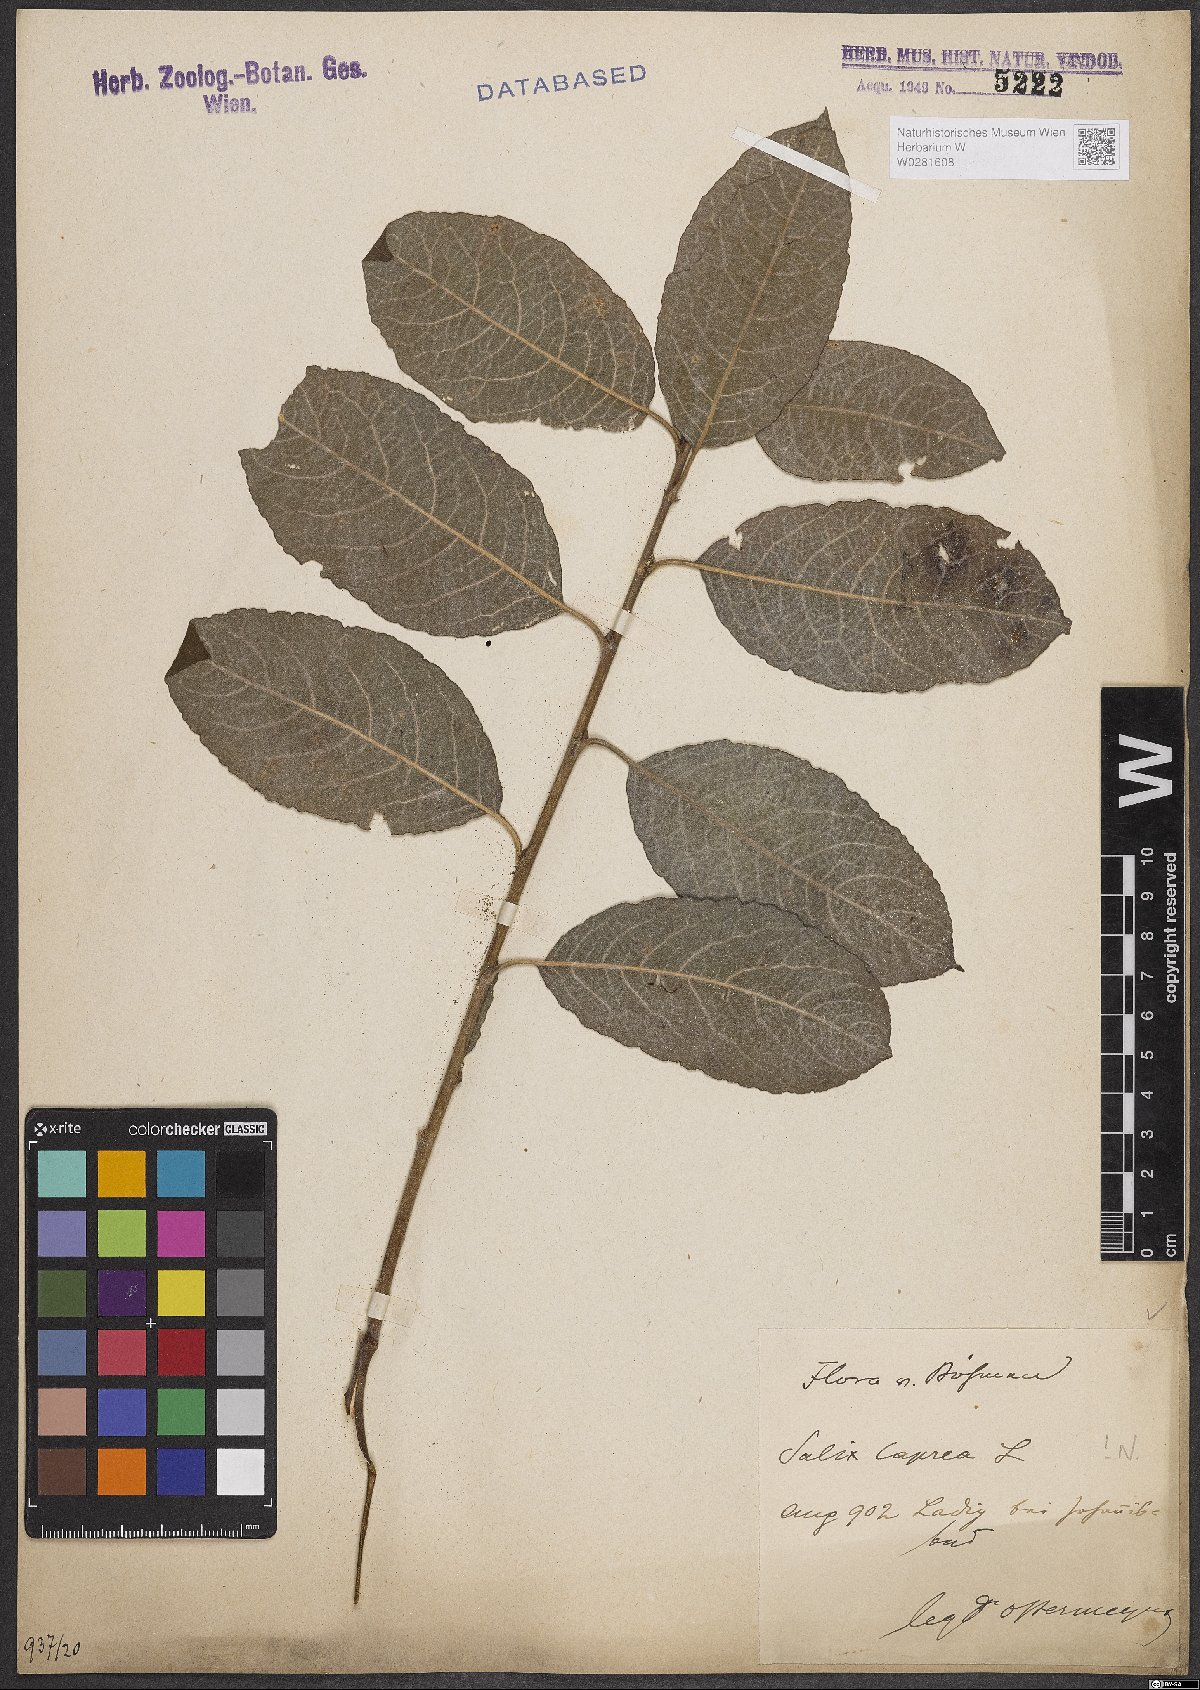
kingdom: Plantae
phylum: Tracheophyta
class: Magnoliopsida
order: Malpighiales
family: Salicaceae
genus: Salix
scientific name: Salix caprea
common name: Goat willow
